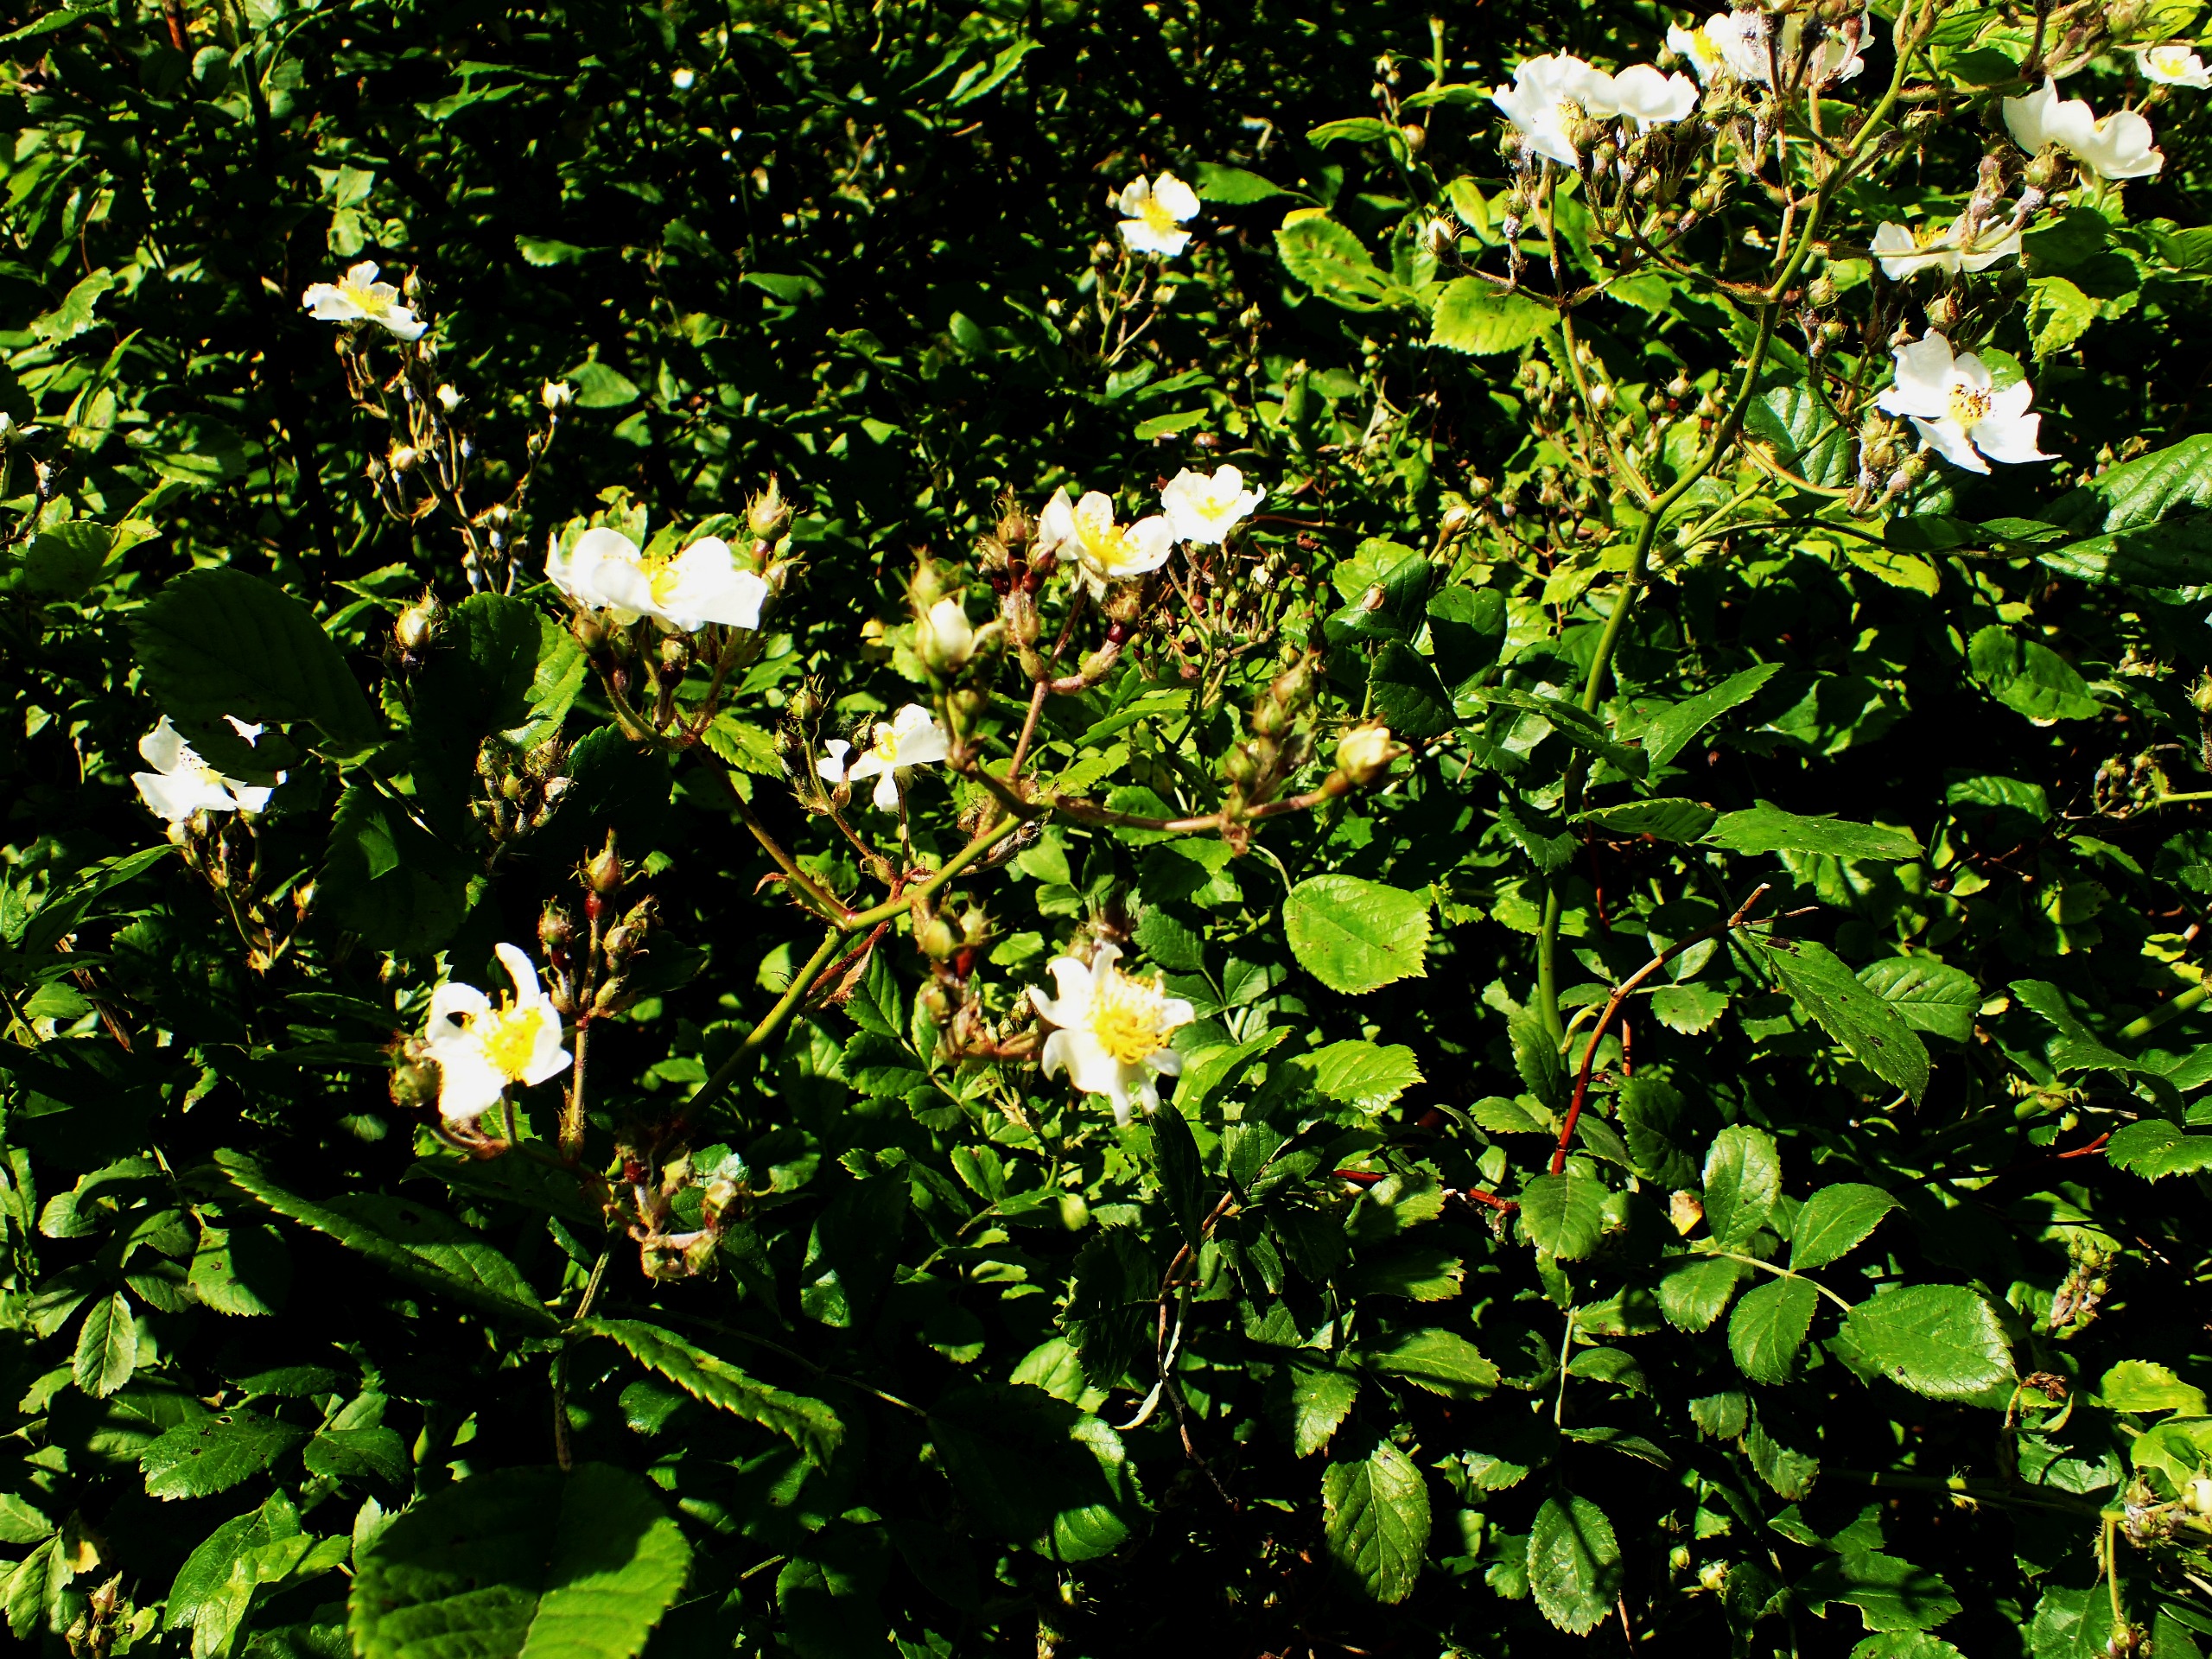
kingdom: Plantae
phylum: Tracheophyta
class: Magnoliopsida
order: Rosales
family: Rosaceae
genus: Rosa
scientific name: Rosa multiflora
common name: Mangeblomstret rose
